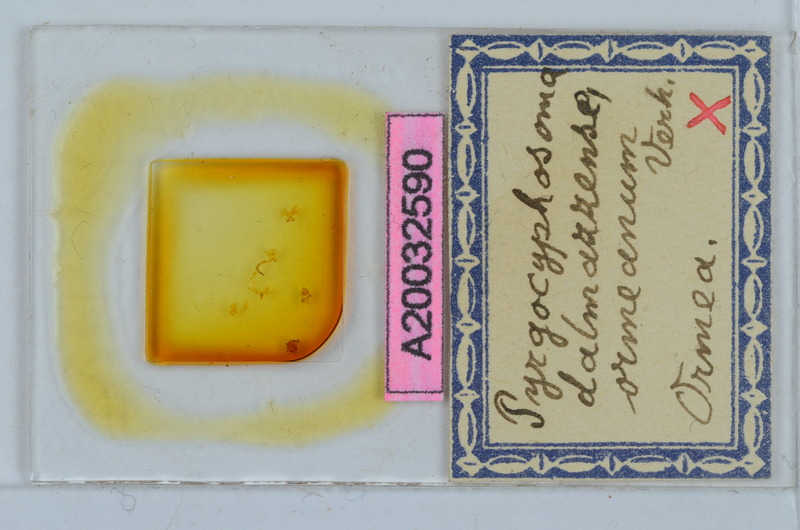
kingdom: Animalia
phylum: Arthropoda
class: Diplopoda
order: Chordeumatida
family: Craspedosomatidae
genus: Pyrgocyphosoma
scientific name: Pyrgocyphosoma ormeanum
